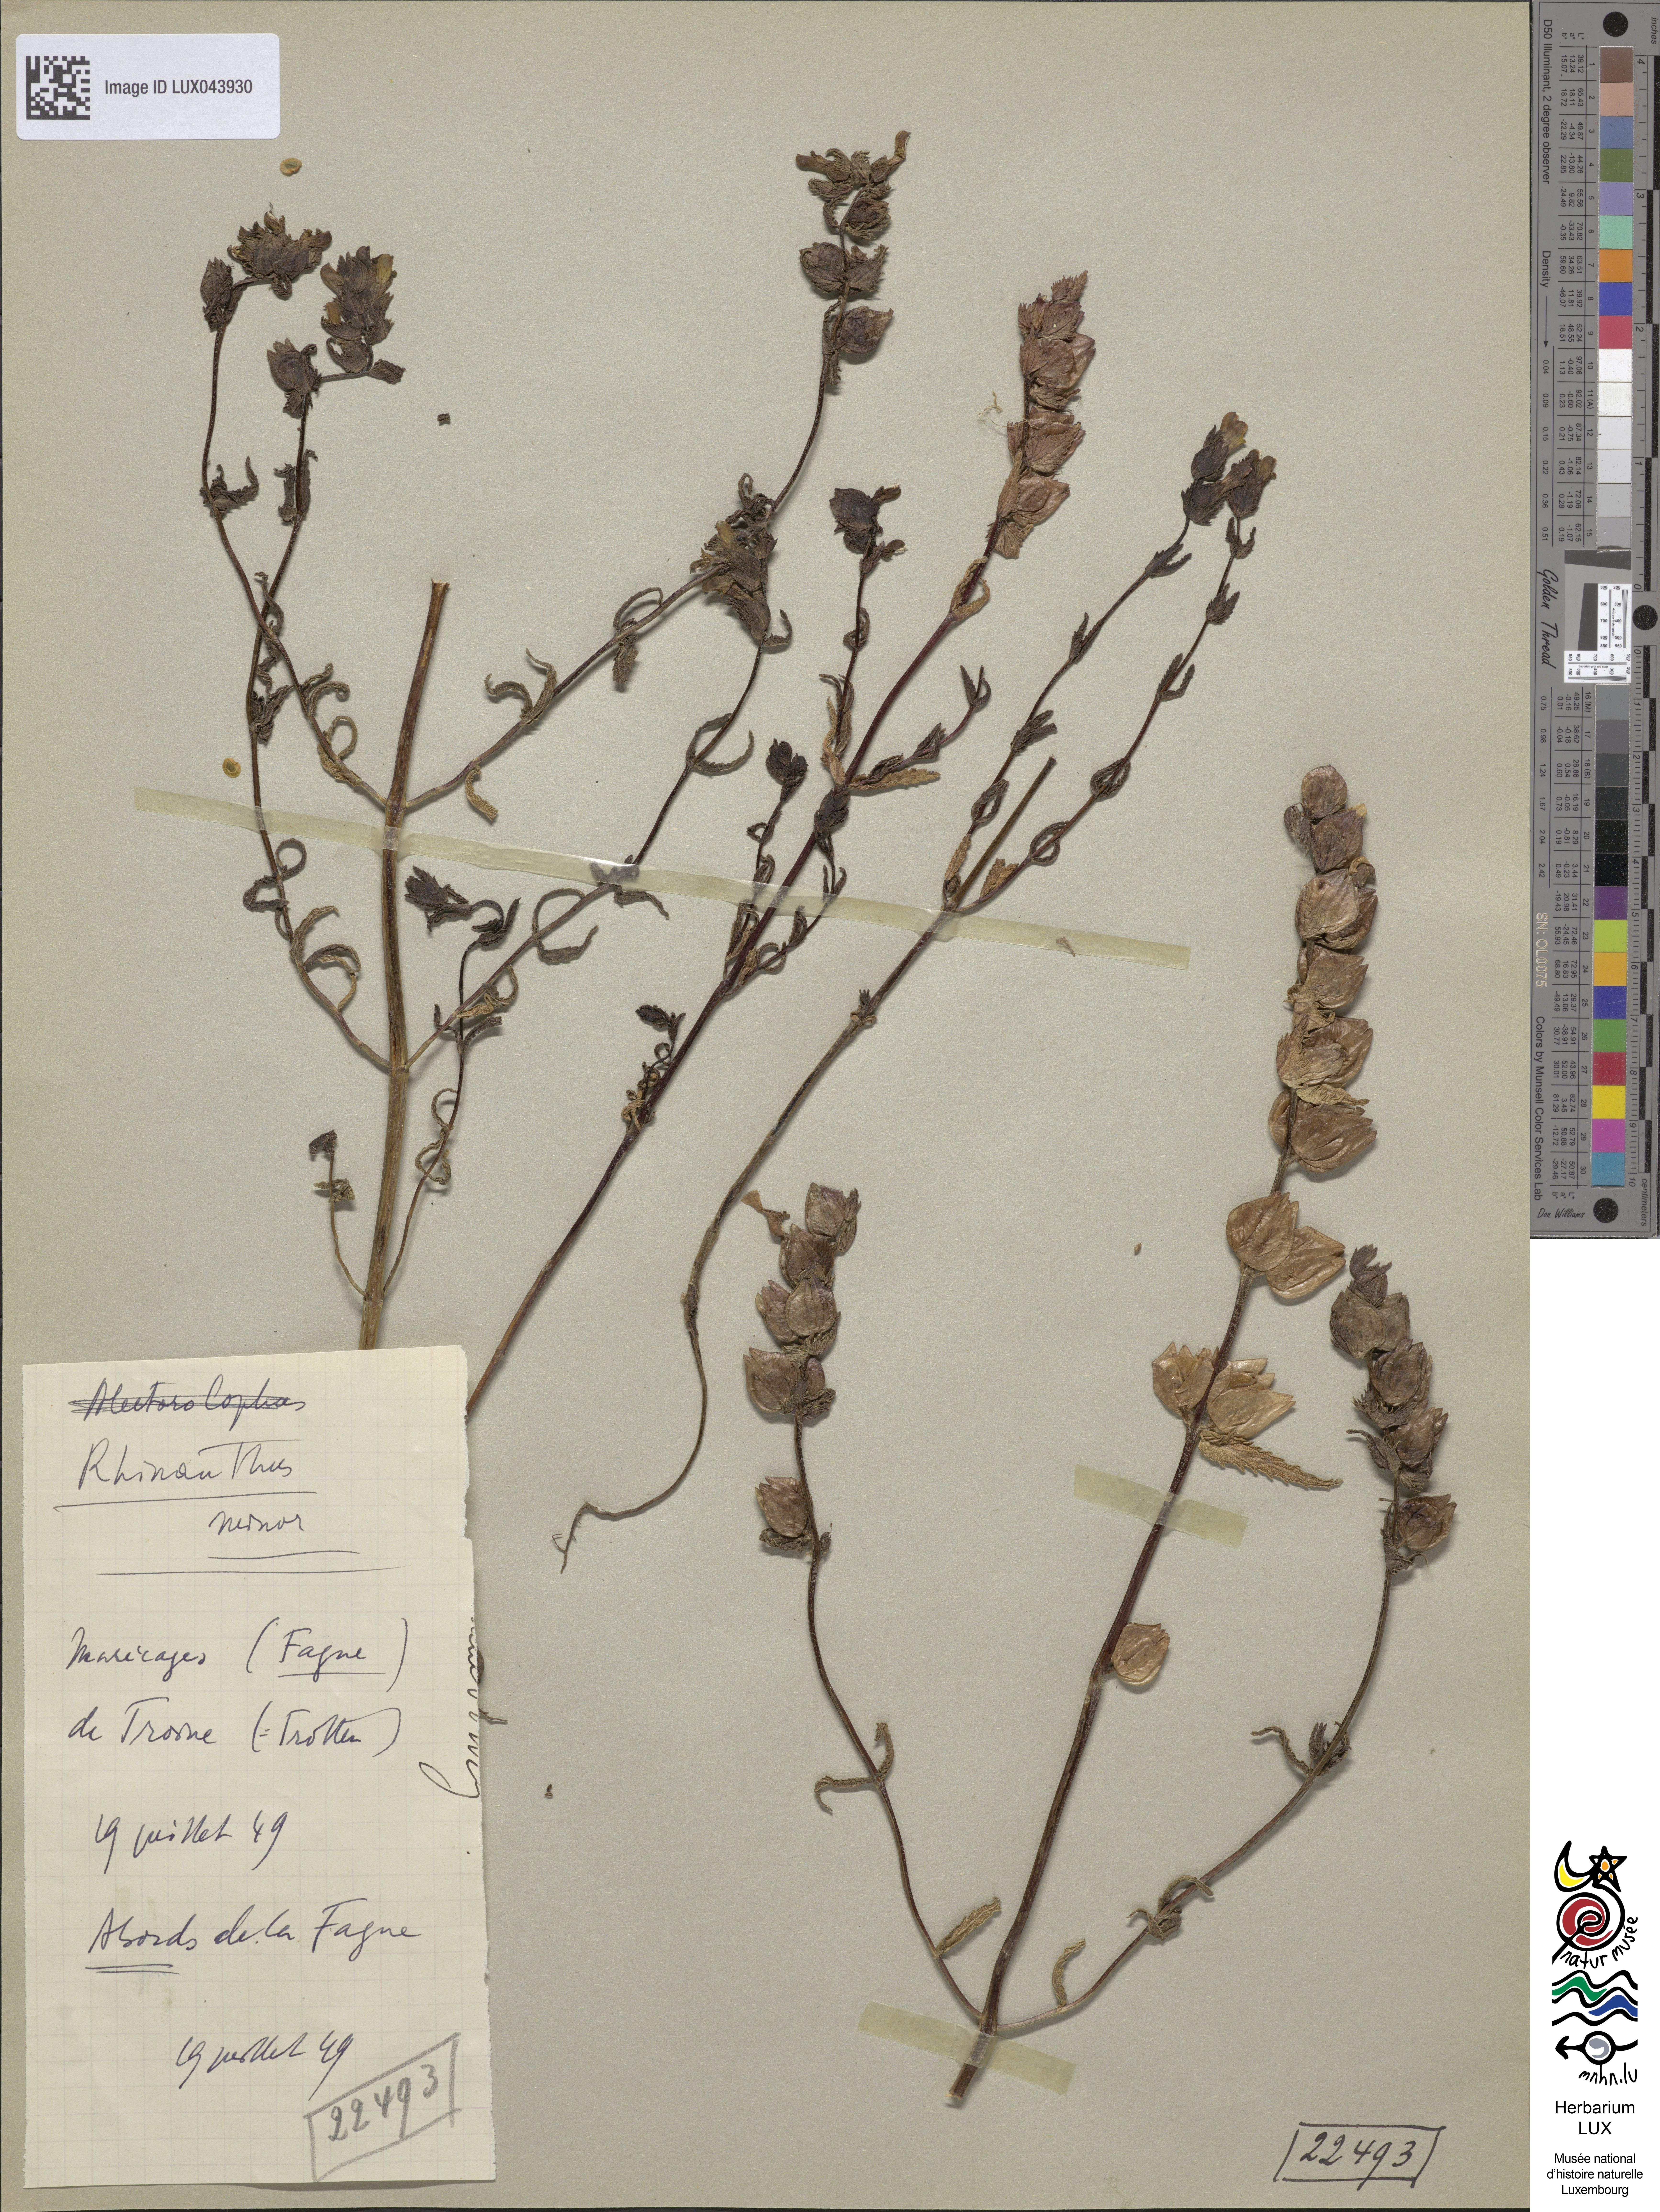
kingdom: Plantae
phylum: Tracheophyta
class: Magnoliopsida
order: Lamiales
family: Orobanchaceae
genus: Rhinanthus
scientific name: Rhinanthus minor
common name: Yellow-rattle
